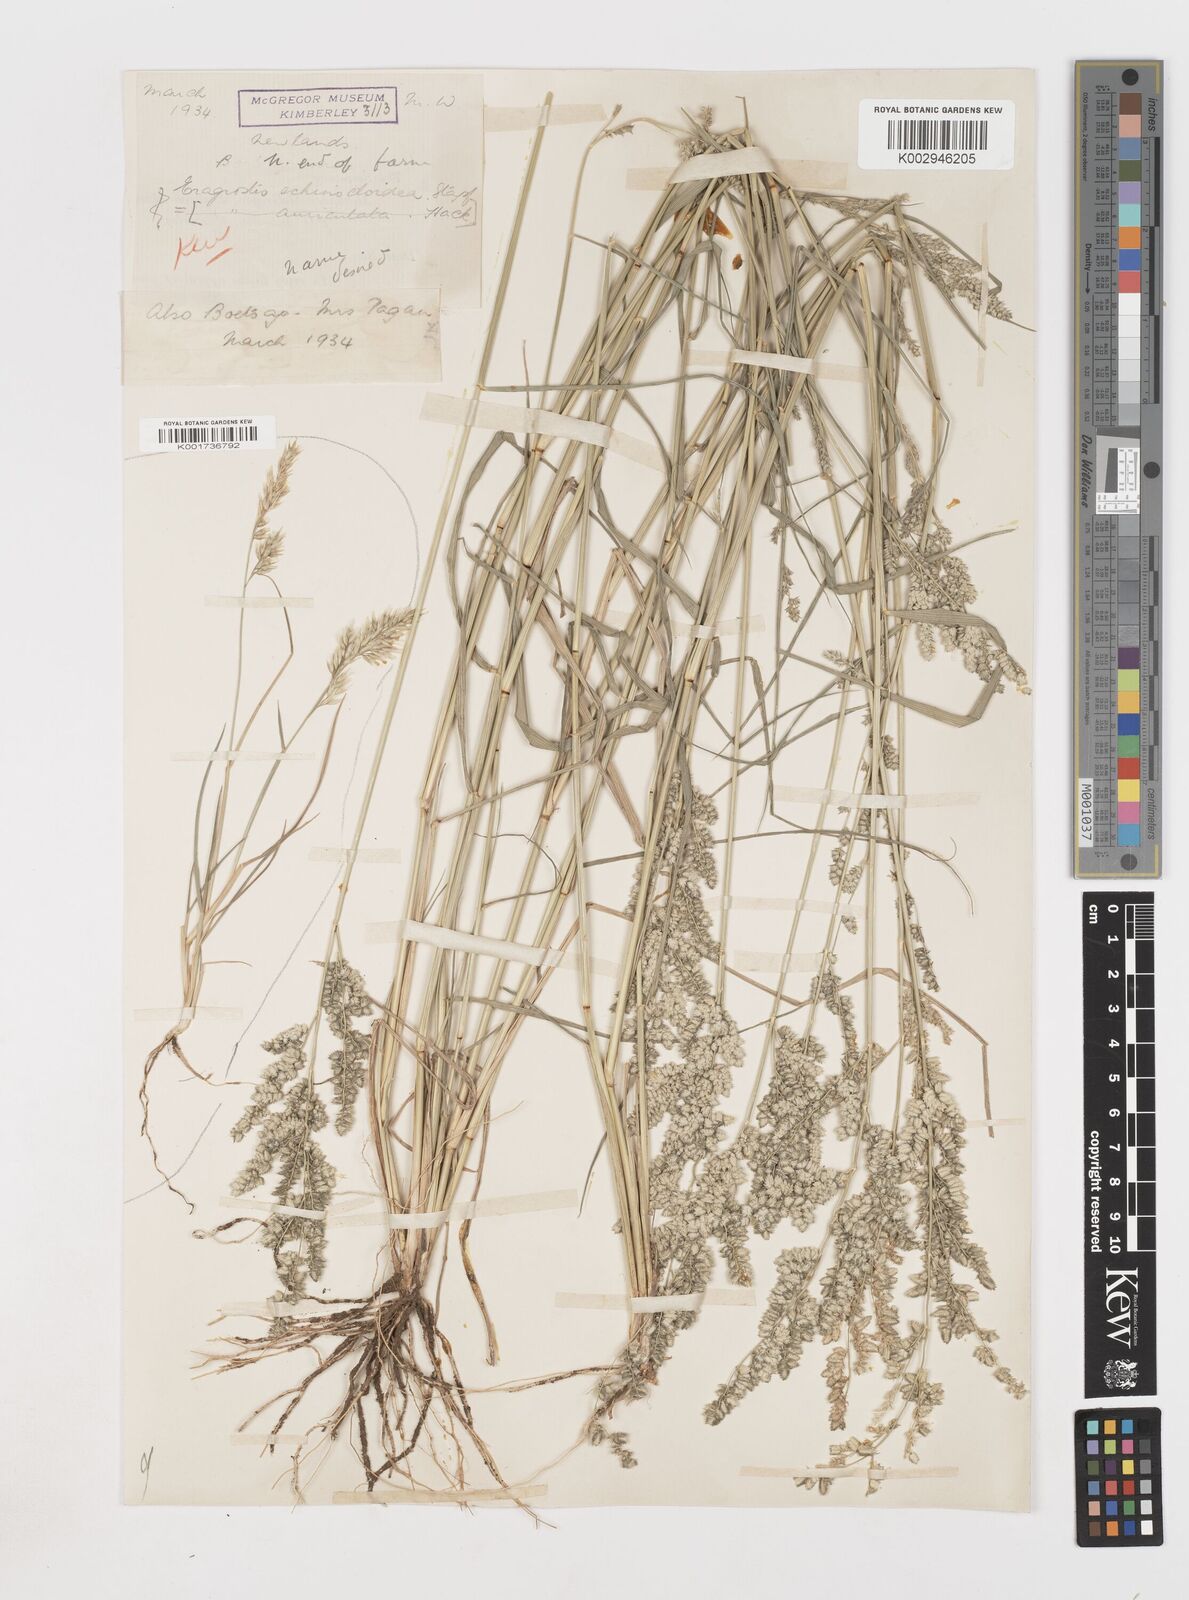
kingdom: Plantae
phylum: Tracheophyta
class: Liliopsida
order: Poales
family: Poaceae
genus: Eragrostis
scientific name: Eragrostis echinochloidea
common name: African lovegrass
